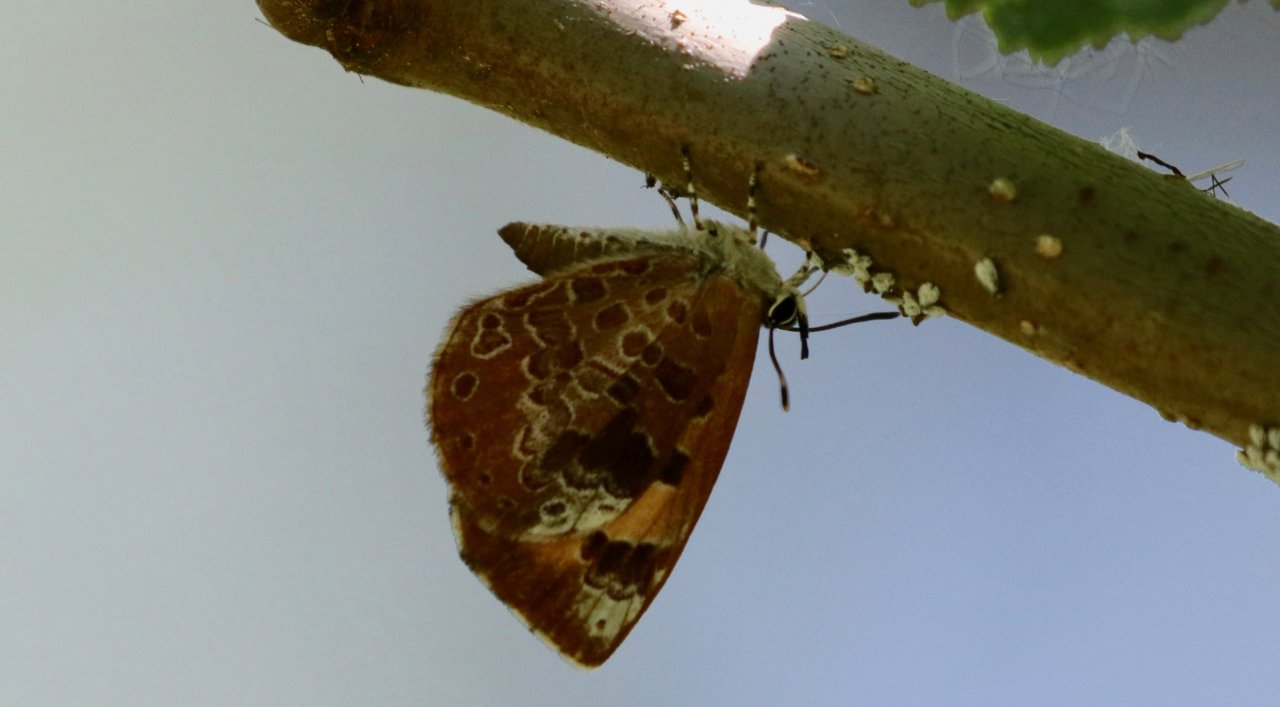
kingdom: Animalia
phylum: Arthropoda
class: Insecta
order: Lepidoptera
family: Lycaenidae
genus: Feniseca
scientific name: Feniseca tarquinius
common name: Harvester
